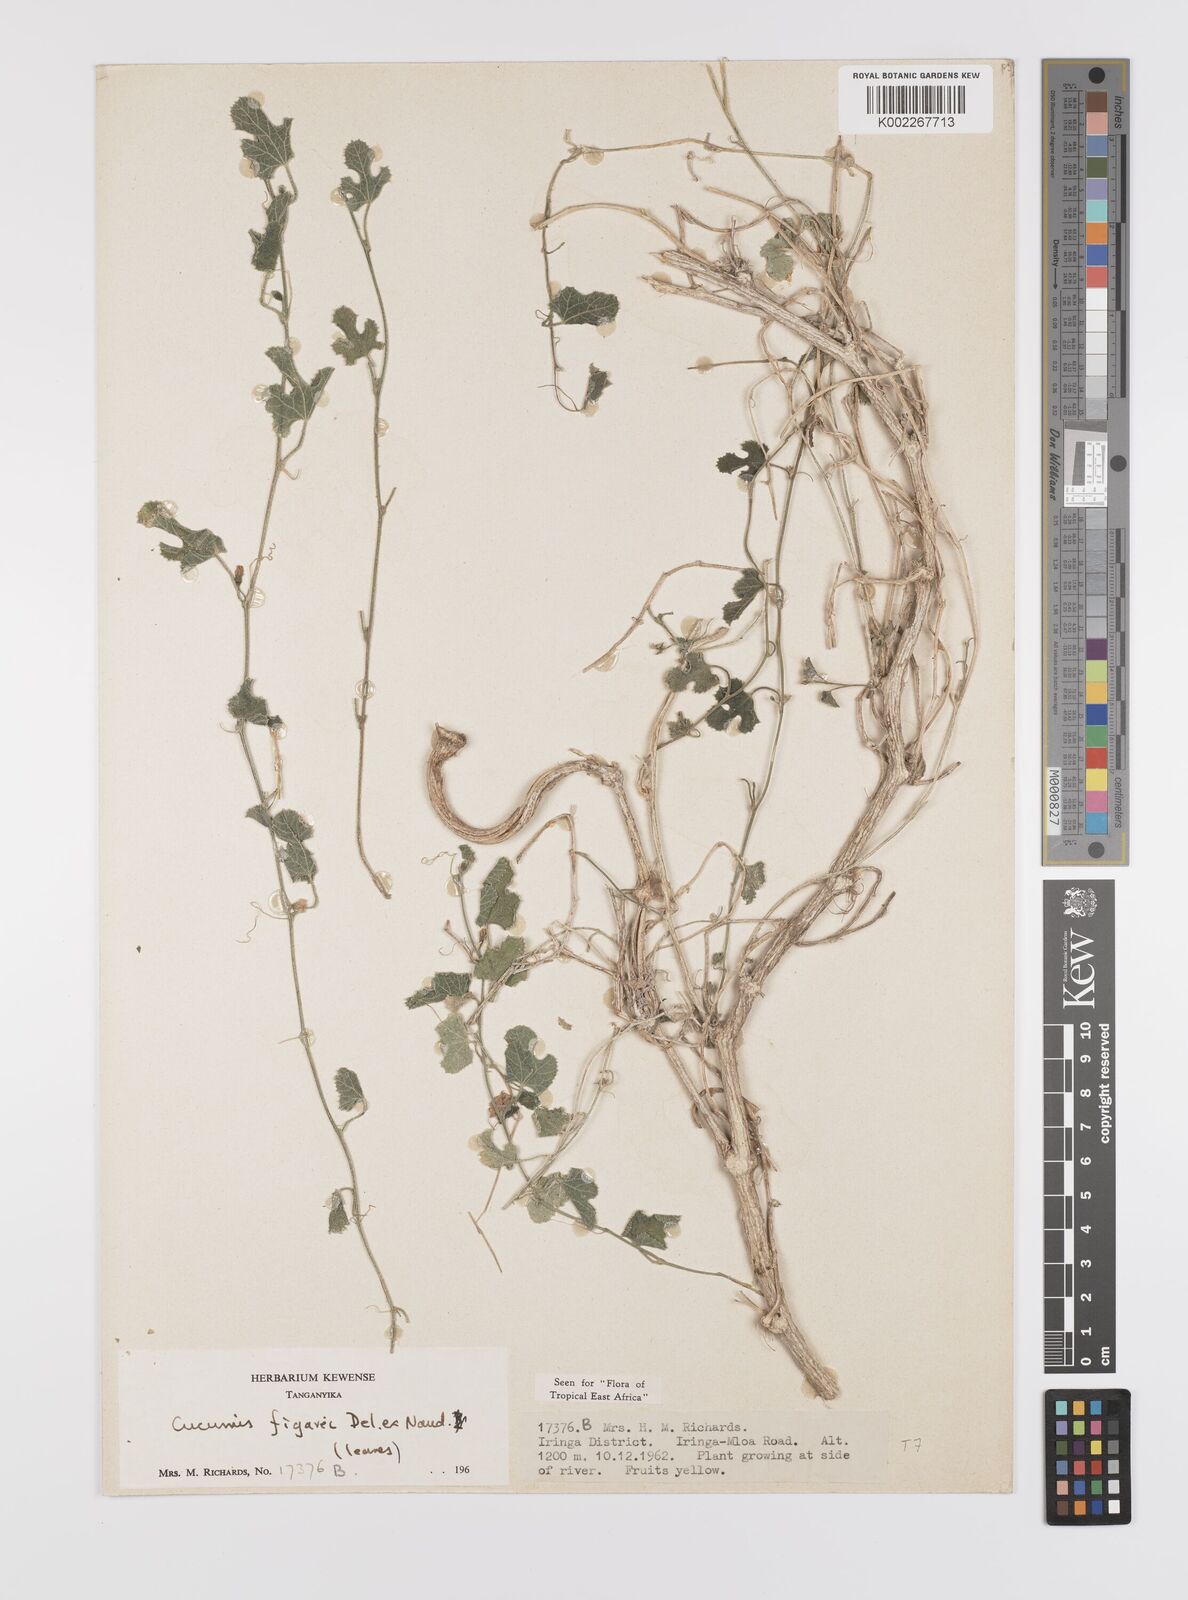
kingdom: Plantae
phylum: Tracheophyta
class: Magnoliopsida
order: Cucurbitales
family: Cucurbitaceae
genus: Cucumis
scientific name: Cucumis pustulatus
